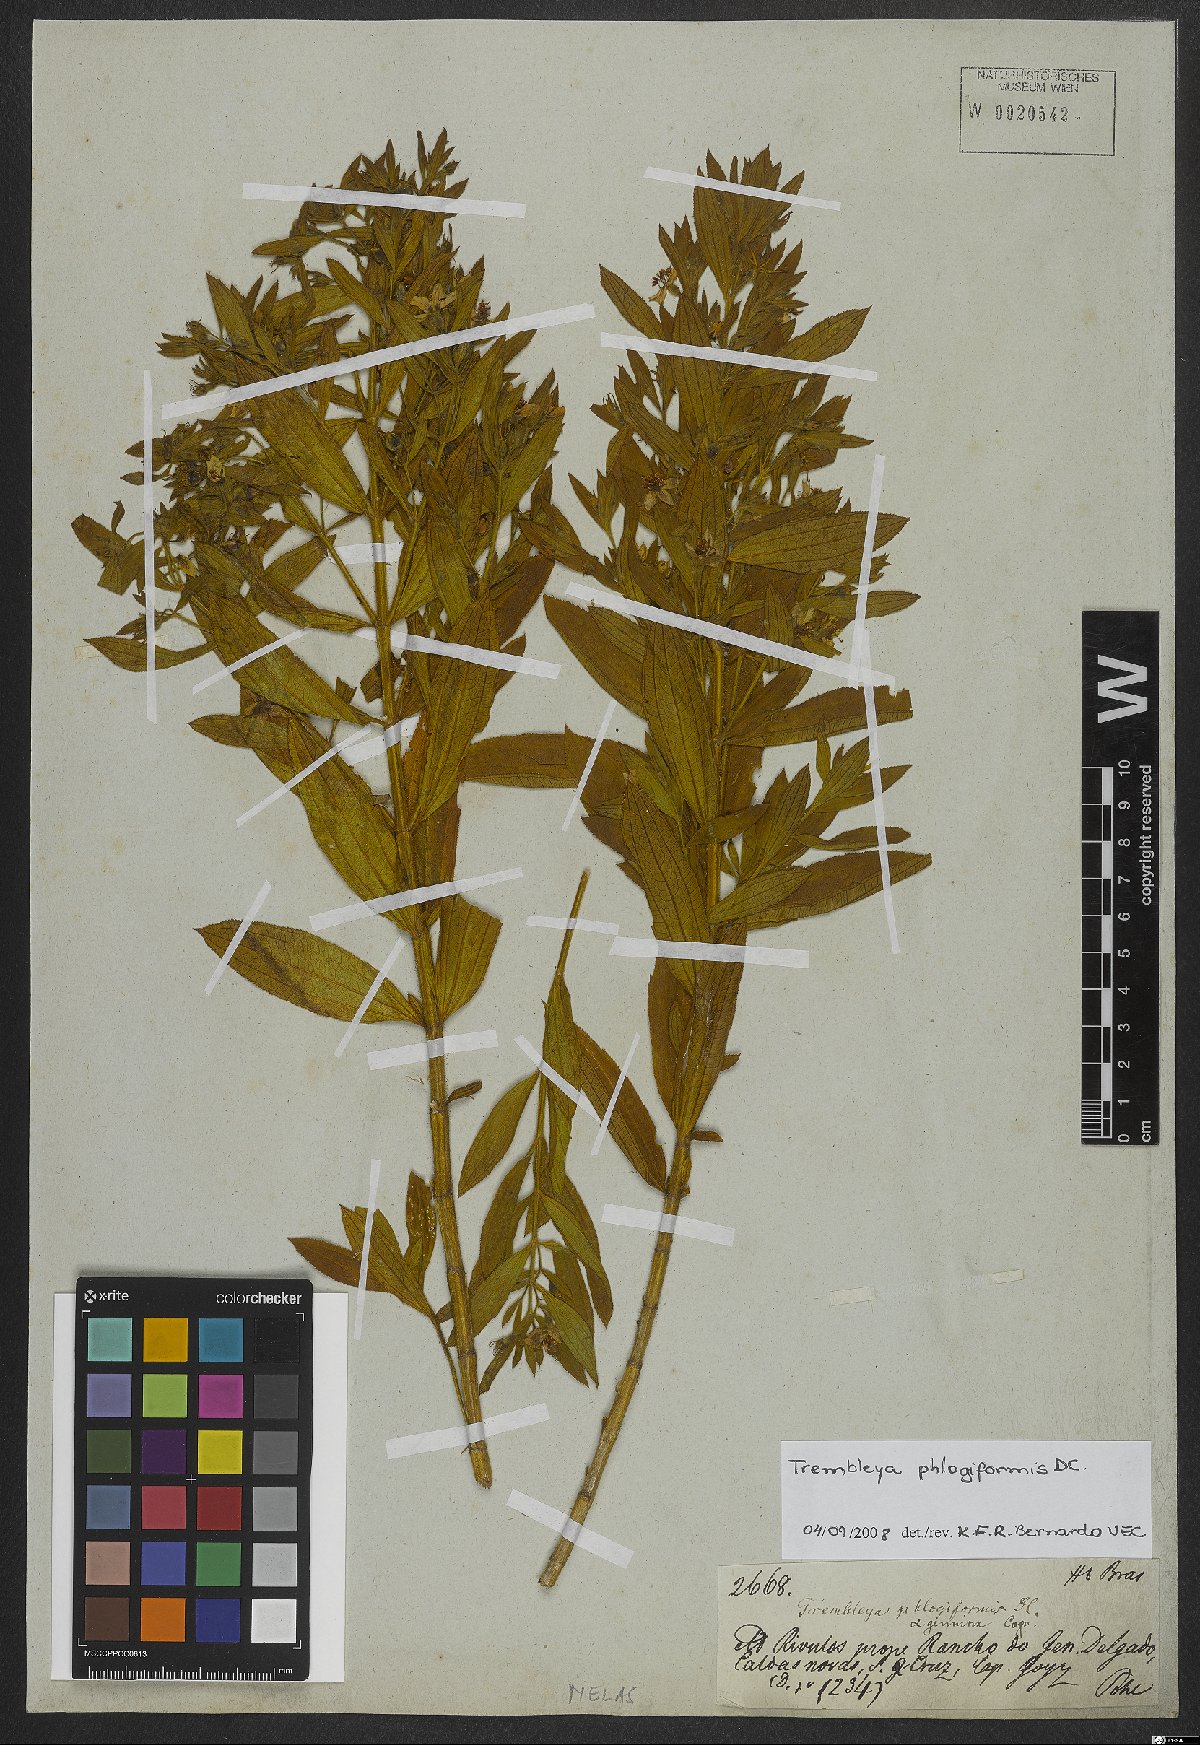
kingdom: Plantae
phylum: Tracheophyta
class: Magnoliopsida
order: Myrtales
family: Melastomataceae
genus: Microlicia
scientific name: Microlicia phlogiformis
